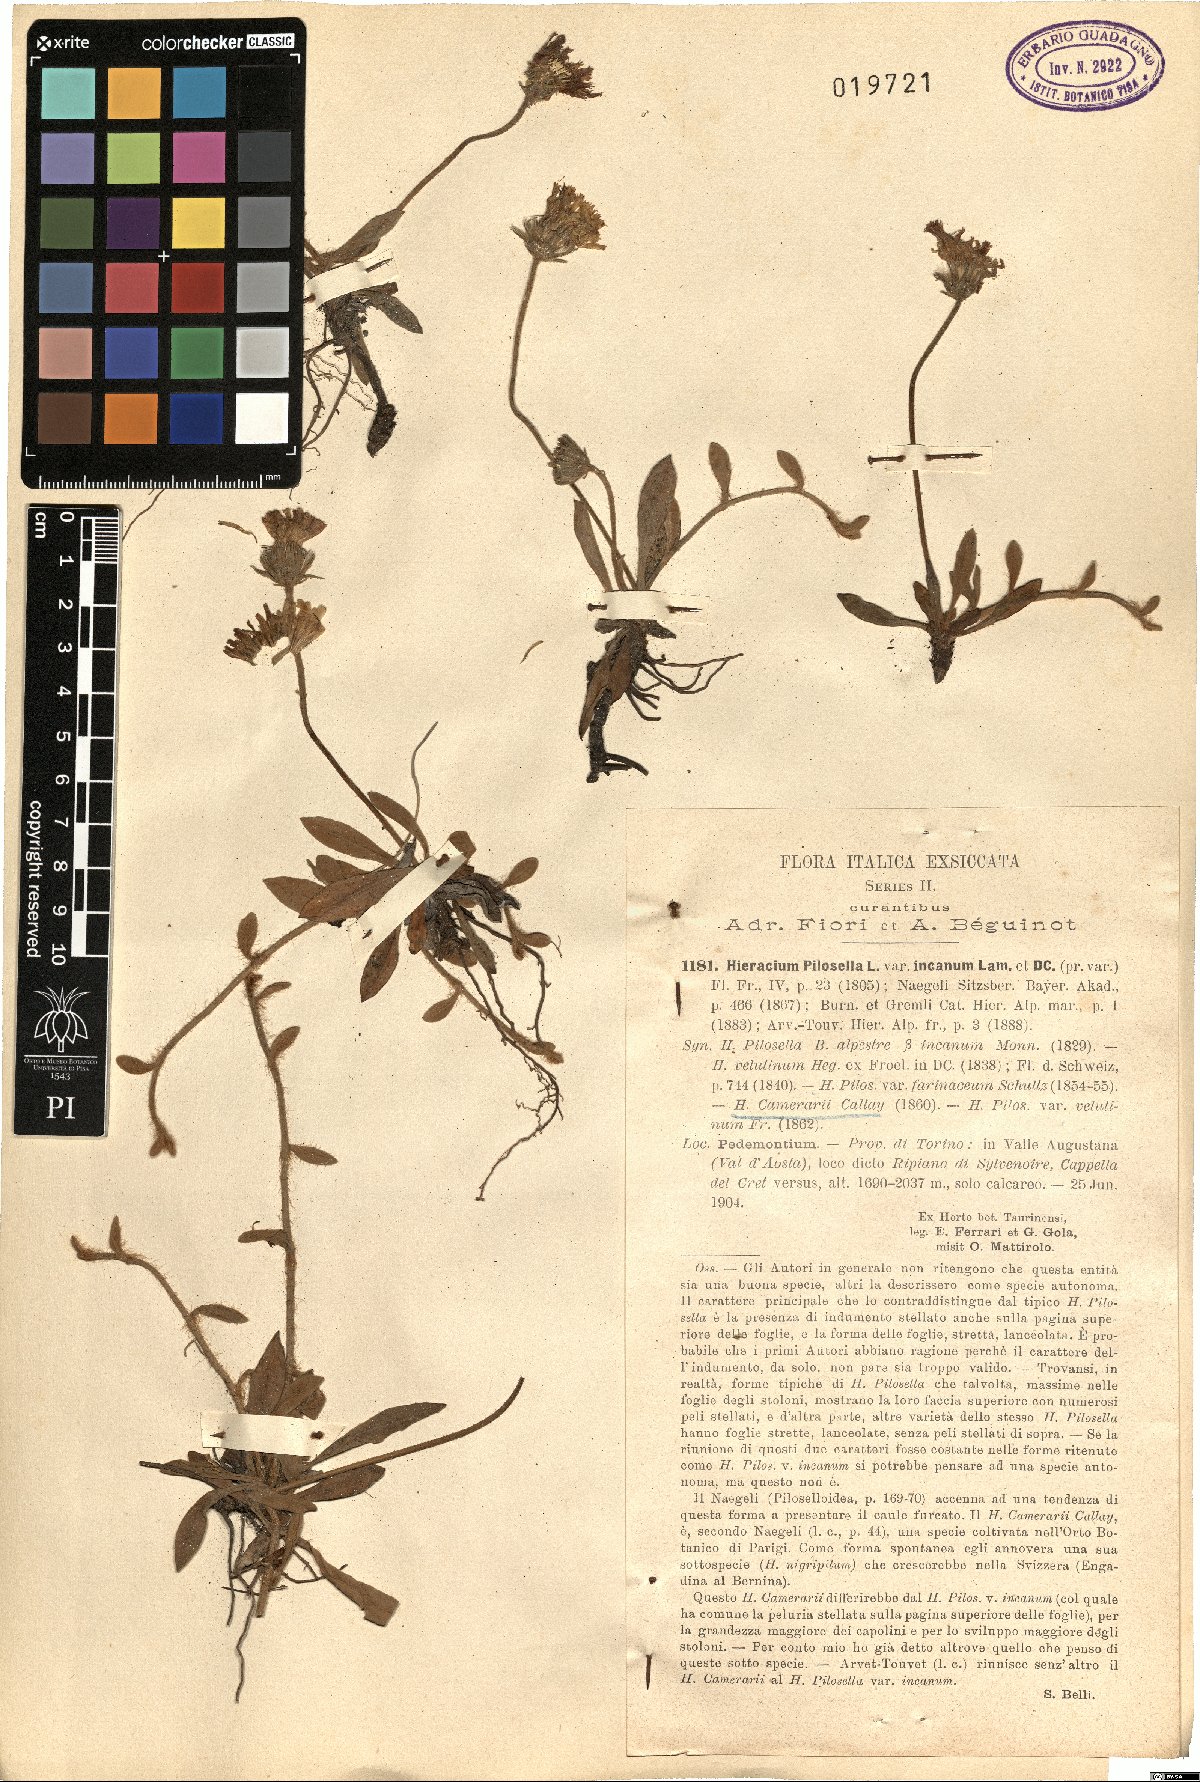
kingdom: Plantae
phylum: Tracheophyta
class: Magnoliopsida
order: Asterales
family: Asteraceae
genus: Pilosella
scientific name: Pilosella velutina
